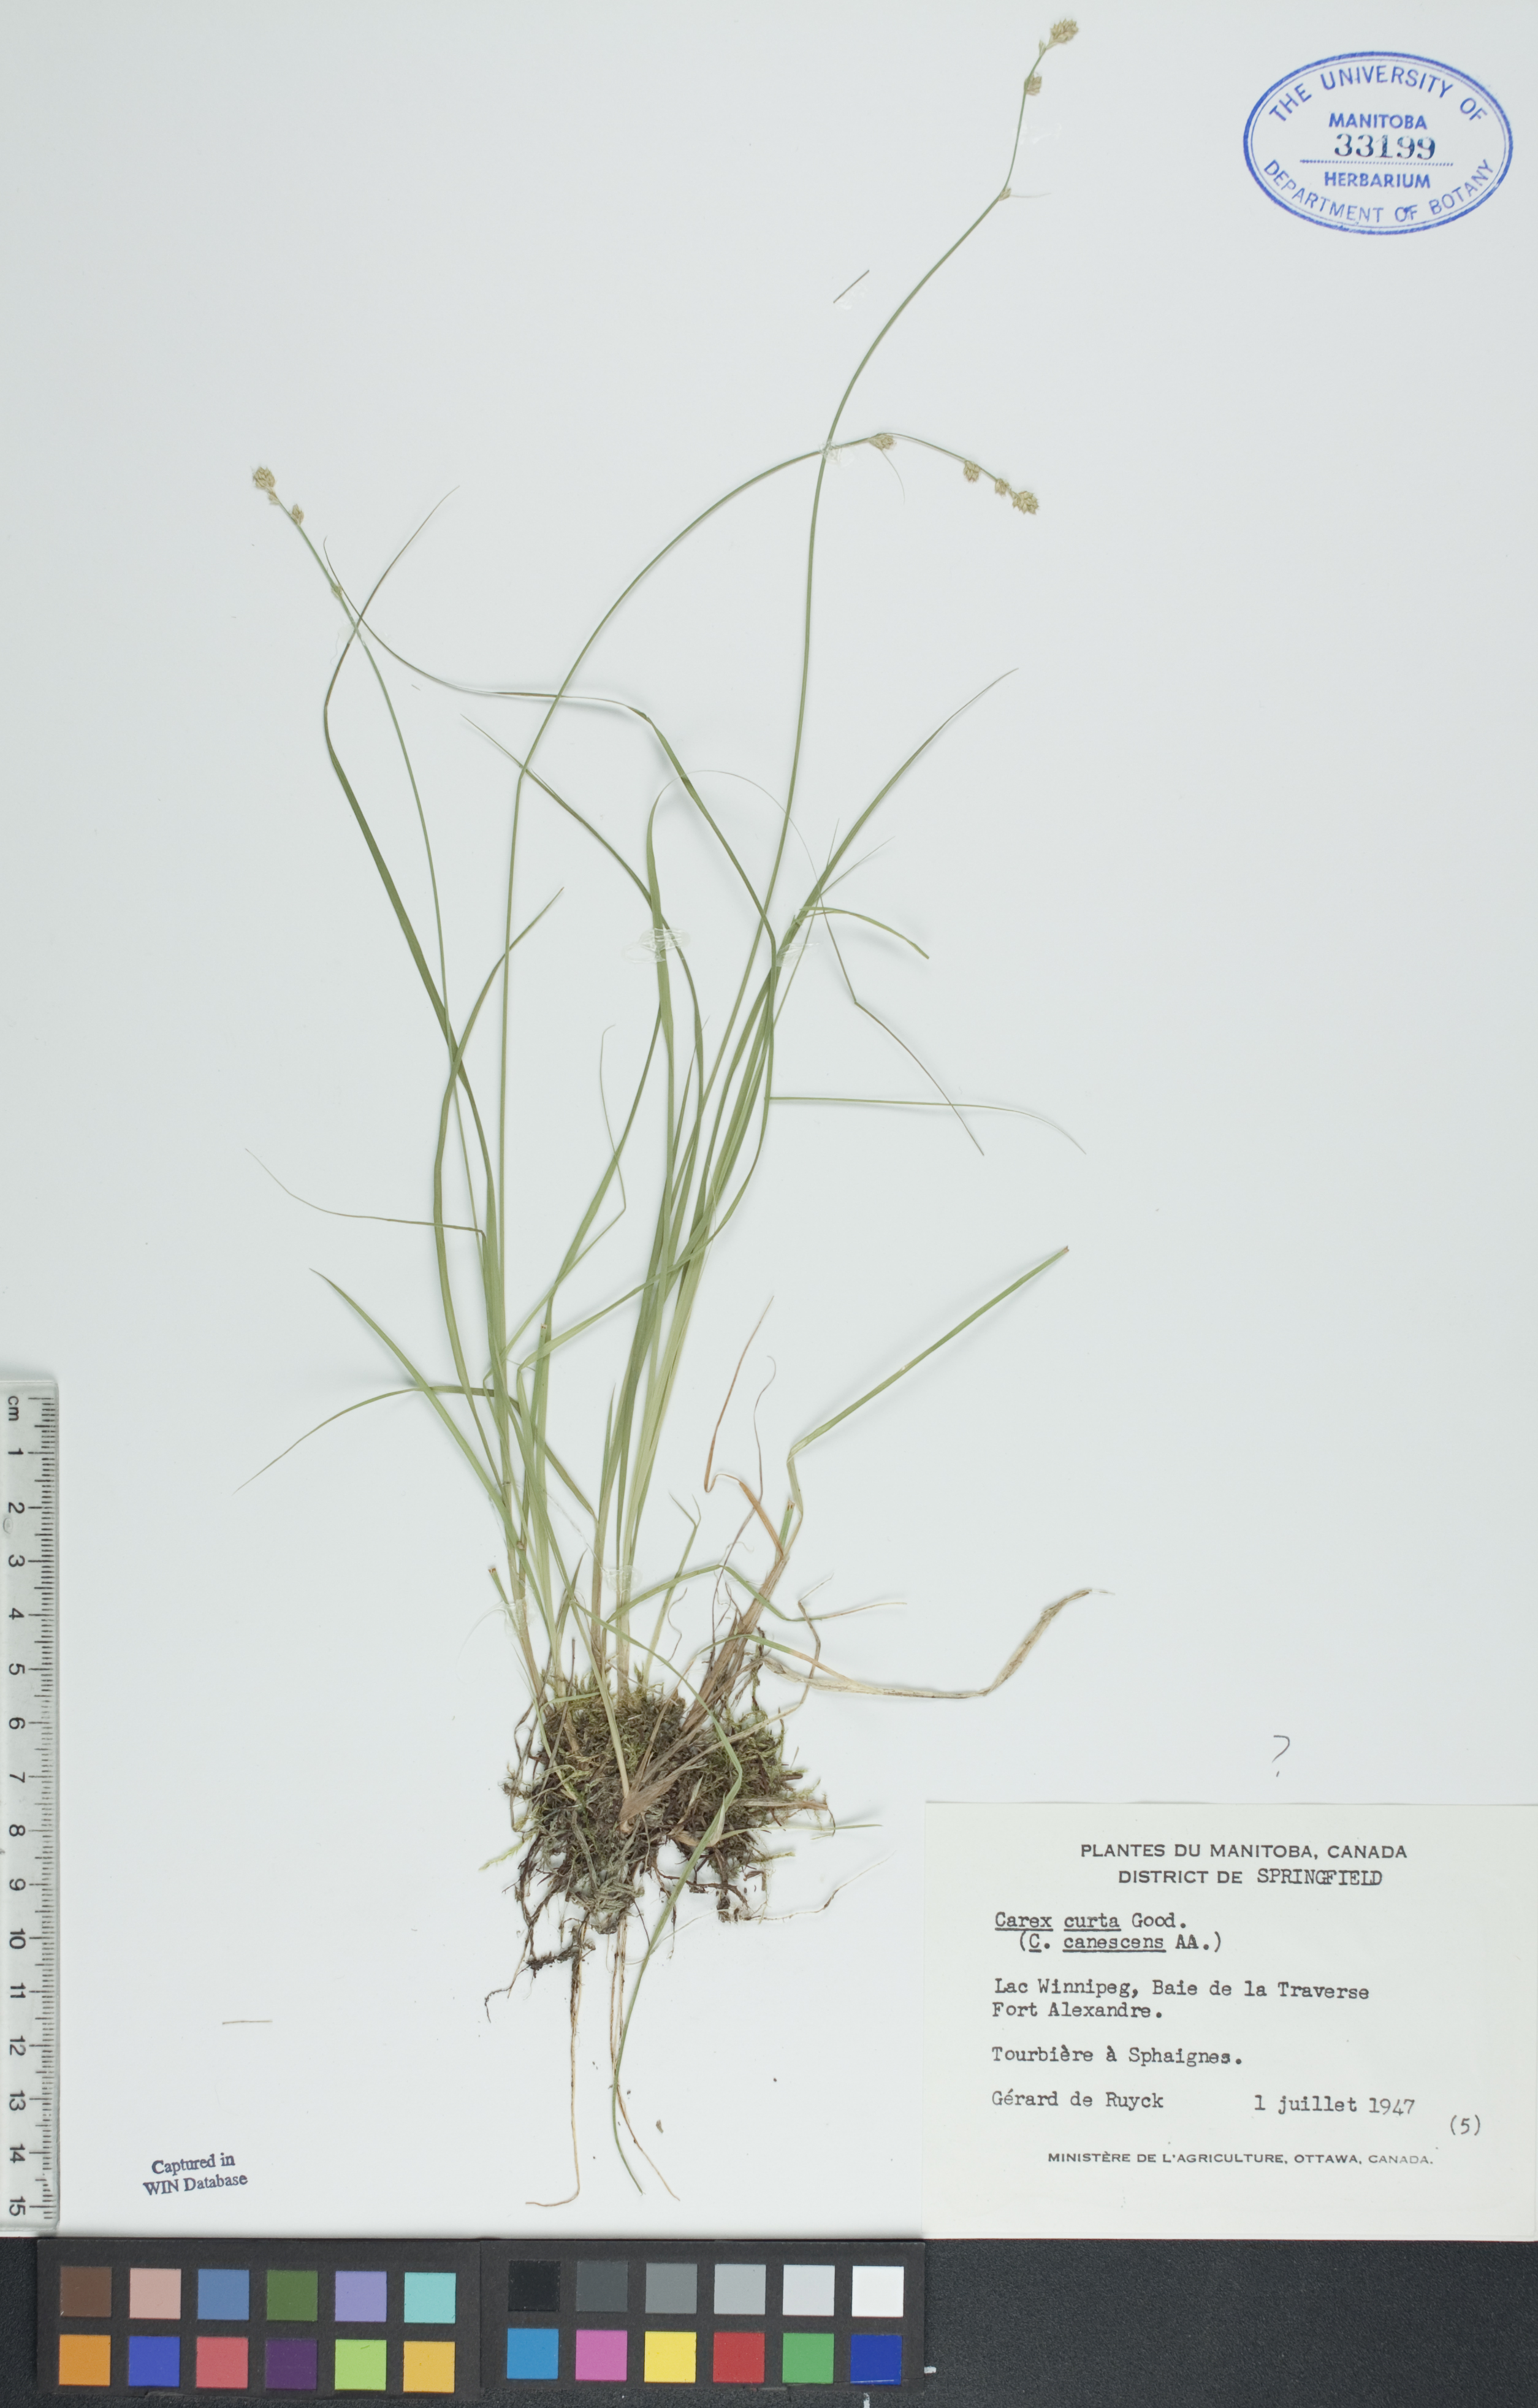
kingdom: Plantae
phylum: Tracheophyta
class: Liliopsida
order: Poales
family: Cyperaceae
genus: Carex
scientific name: Carex canescens
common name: White sedge
